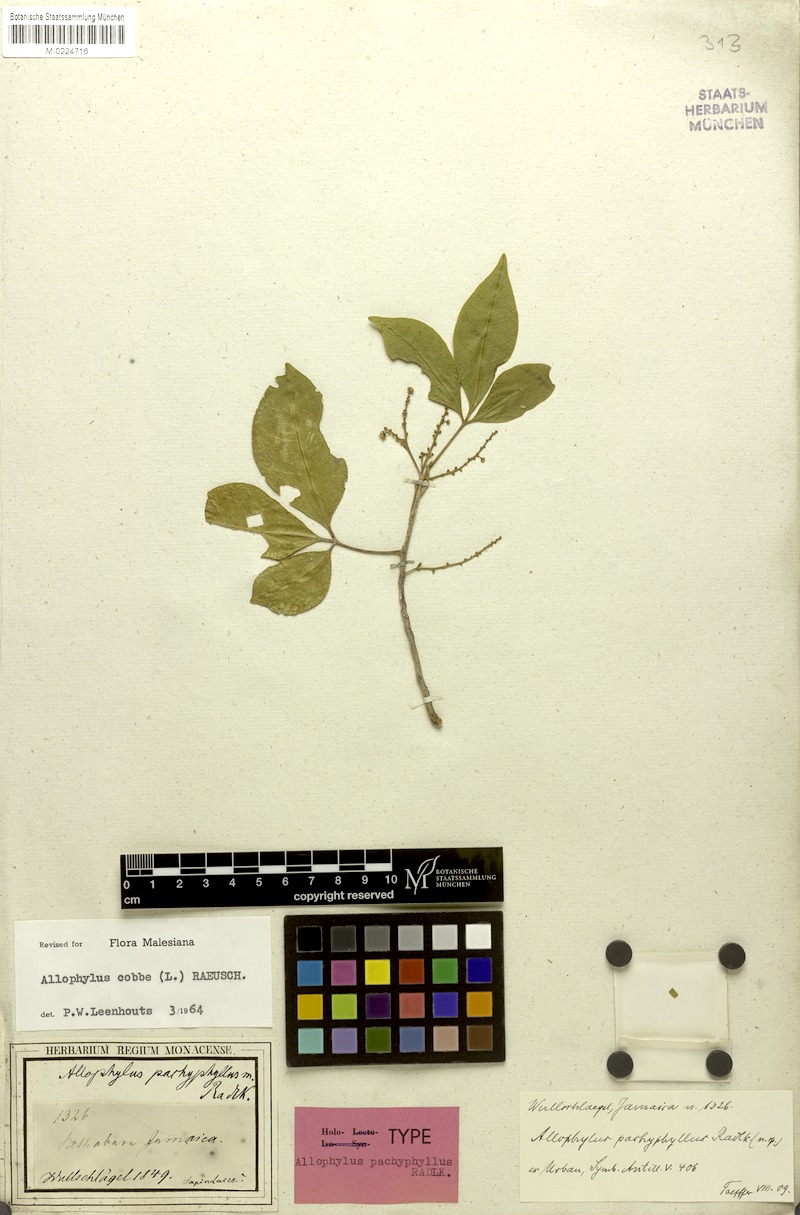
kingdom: Plantae
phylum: Tracheophyta
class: Magnoliopsida
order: Sapindales
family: Sapindaceae
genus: Allophylus
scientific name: Allophylus pachyphyllus
